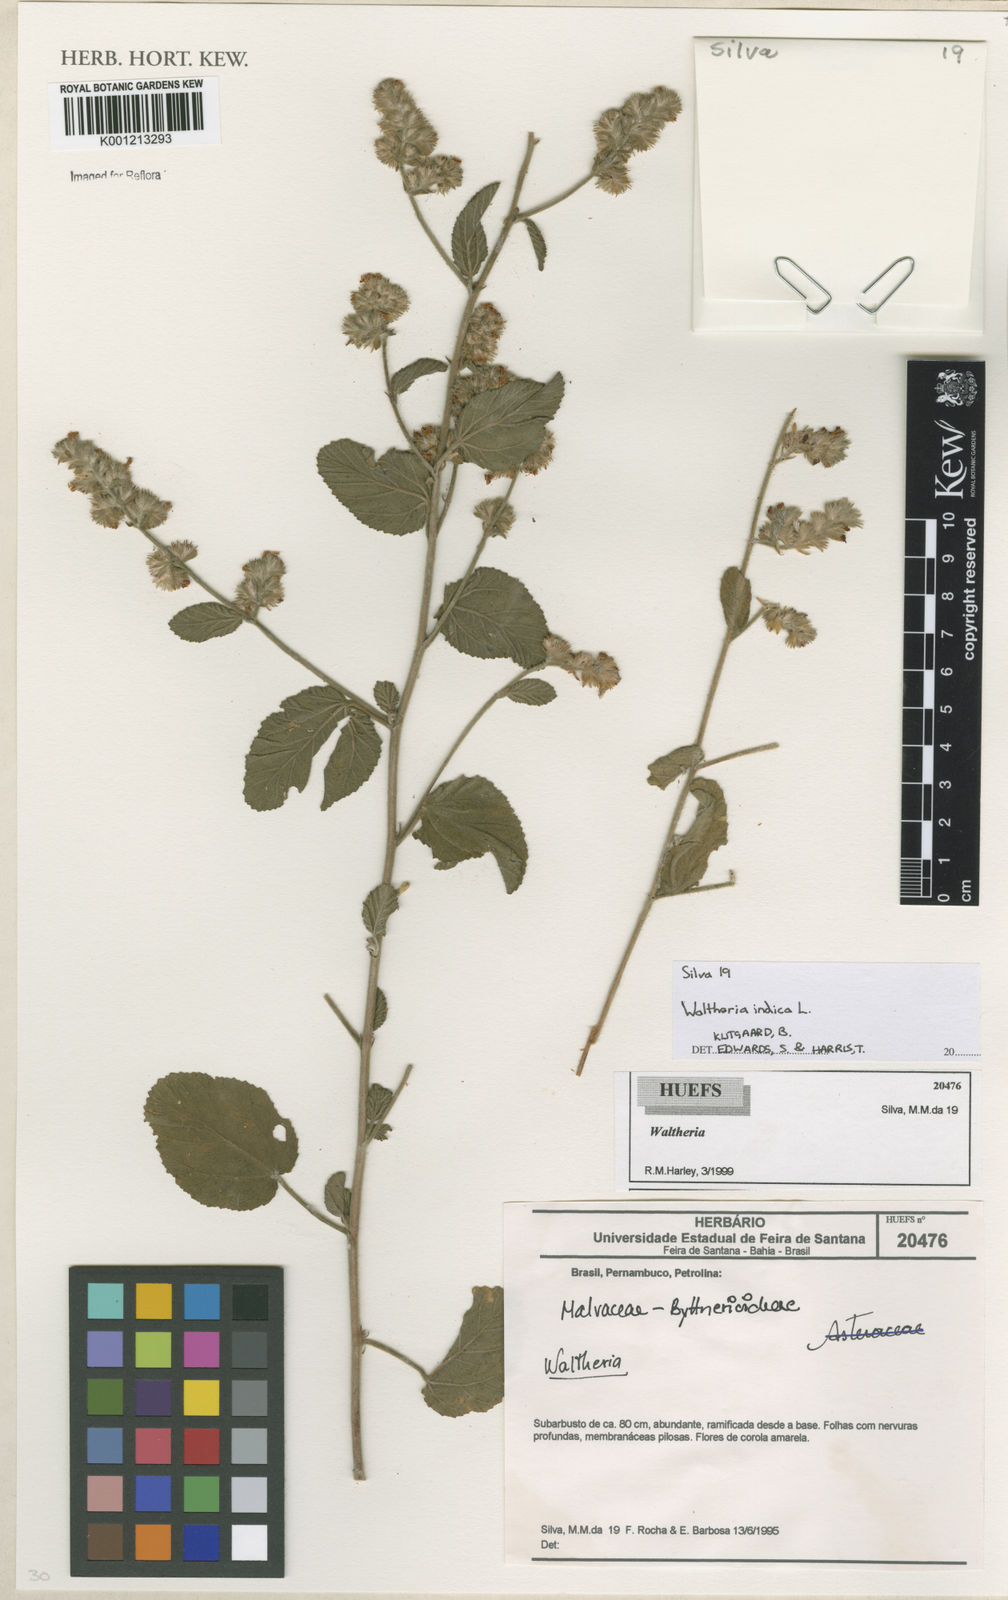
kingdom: Plantae
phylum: Tracheophyta
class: Magnoliopsida
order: Malvales
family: Malvaceae
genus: Waltheria
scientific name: Waltheria indica
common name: Leather-coat
